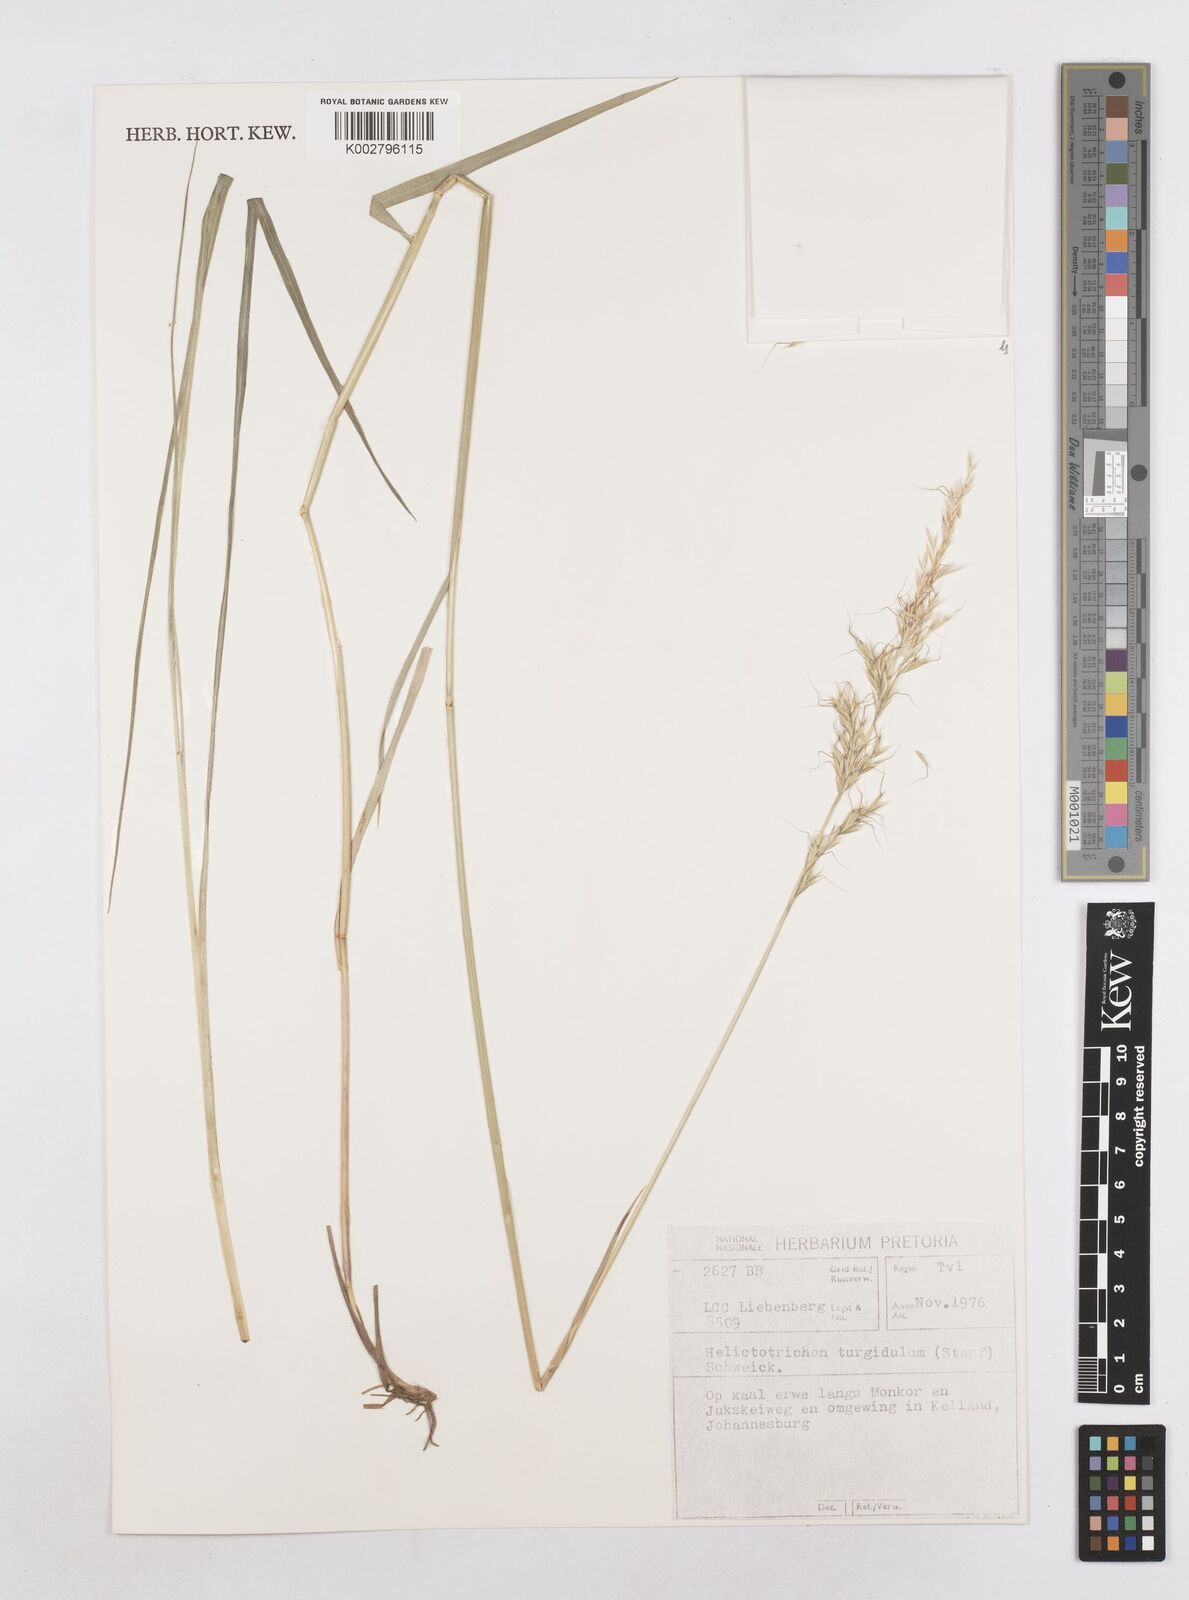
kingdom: Plantae
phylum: Tracheophyta
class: Liliopsida
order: Poales
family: Poaceae
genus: Trisetopsis
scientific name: Trisetopsis imberbis
